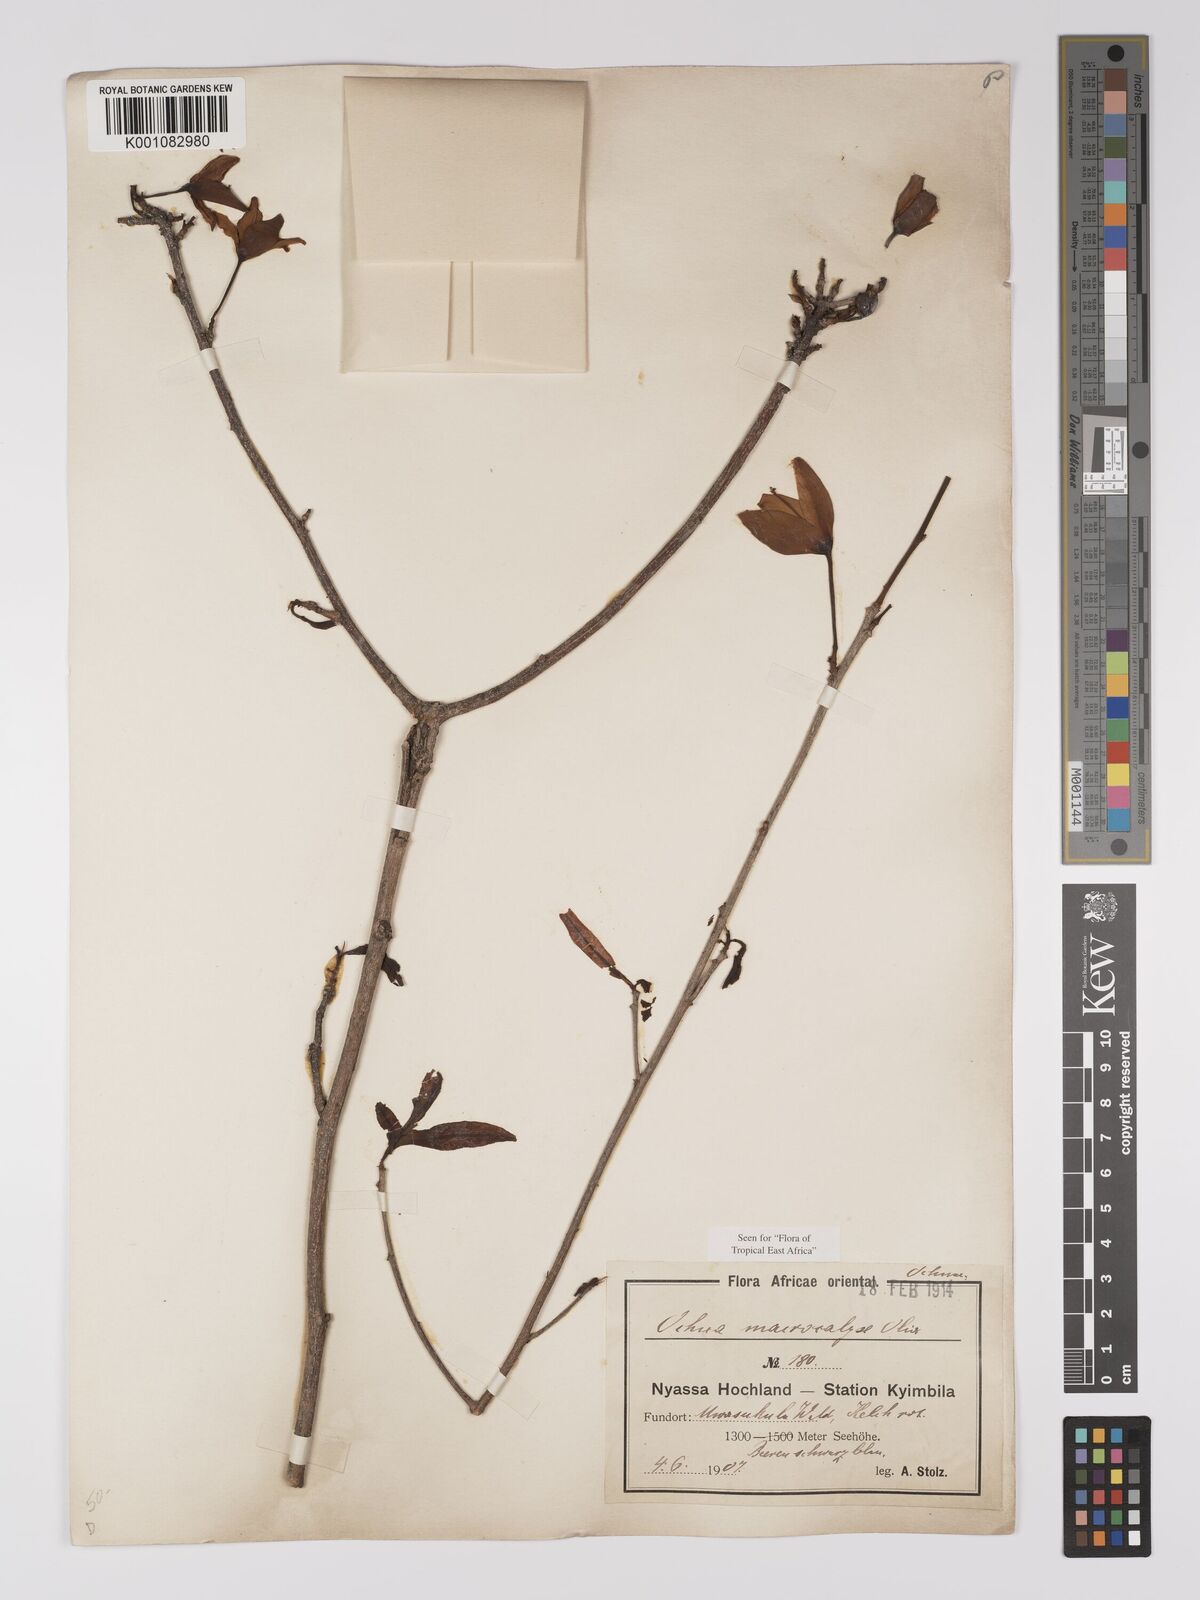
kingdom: Plantae
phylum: Tracheophyta
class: Magnoliopsida
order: Malpighiales
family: Ochnaceae
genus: Ochna
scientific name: Ochna macrocalyx
